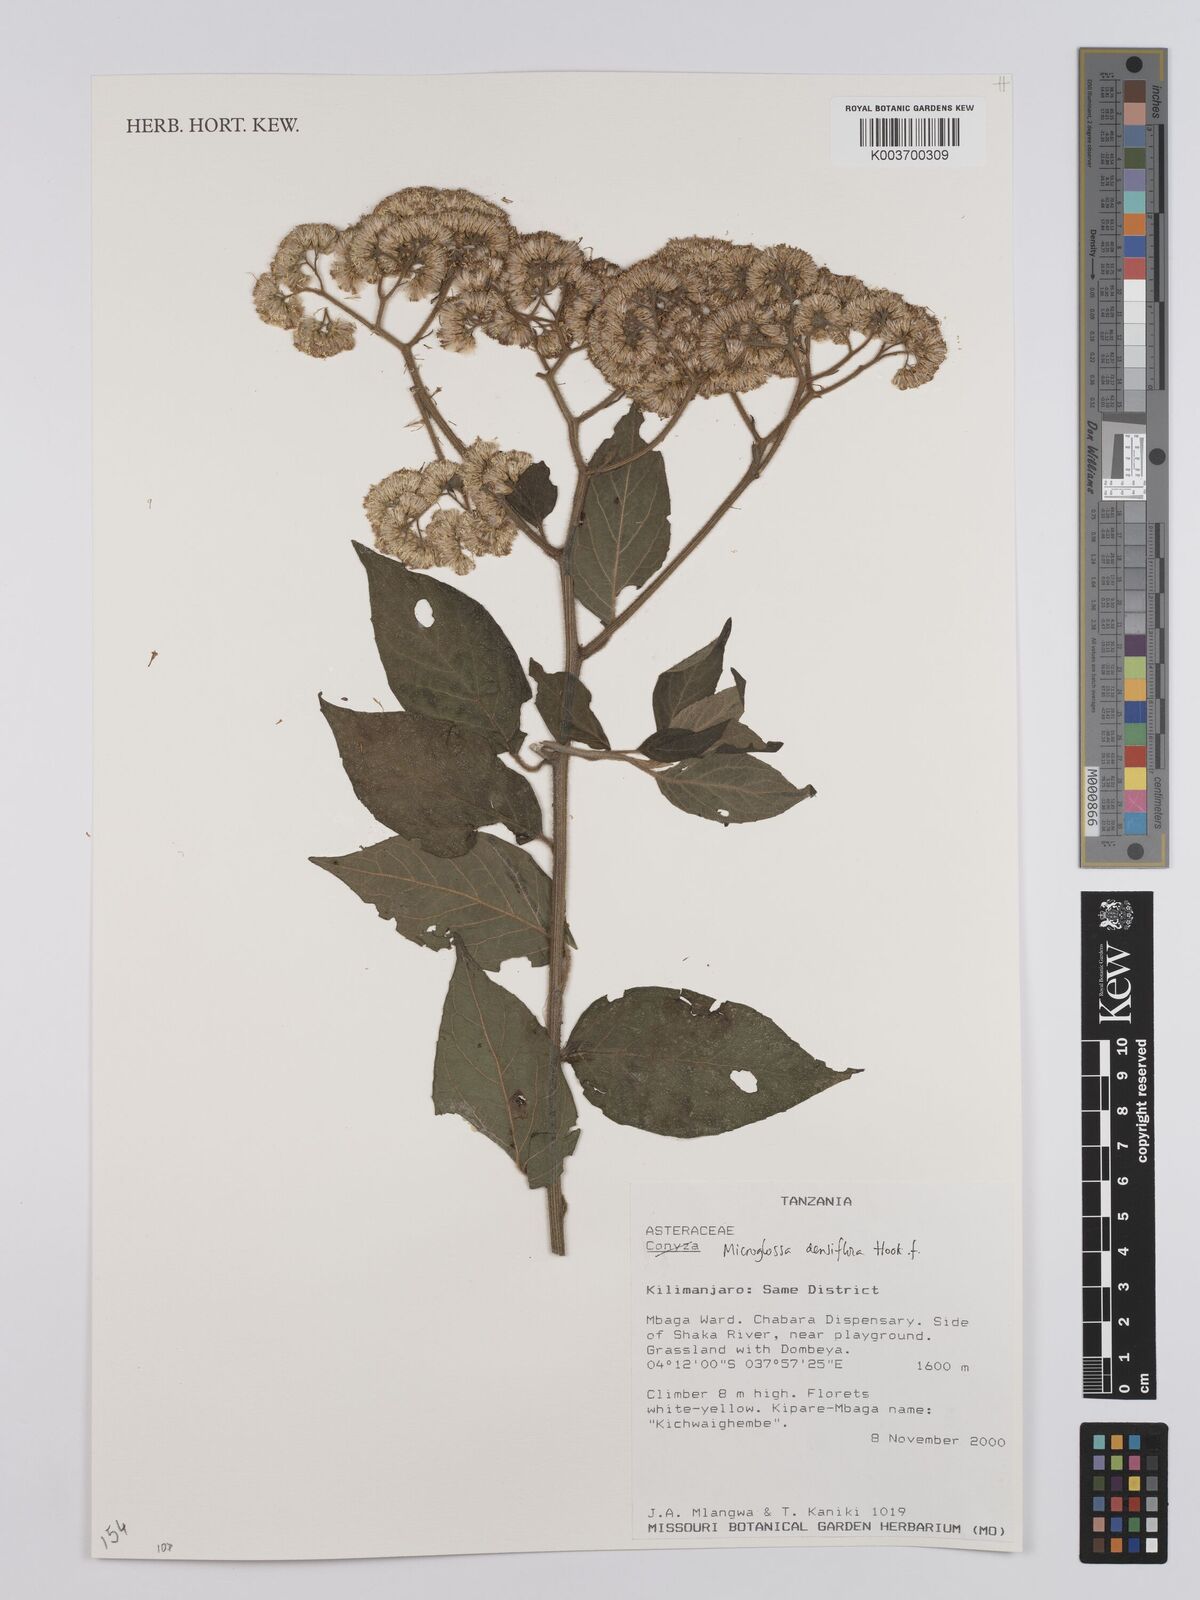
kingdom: Plantae
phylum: Tracheophyta
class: Magnoliopsida
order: Asterales
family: Asteraceae
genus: Microglossa
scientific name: Microglossa densiflora
